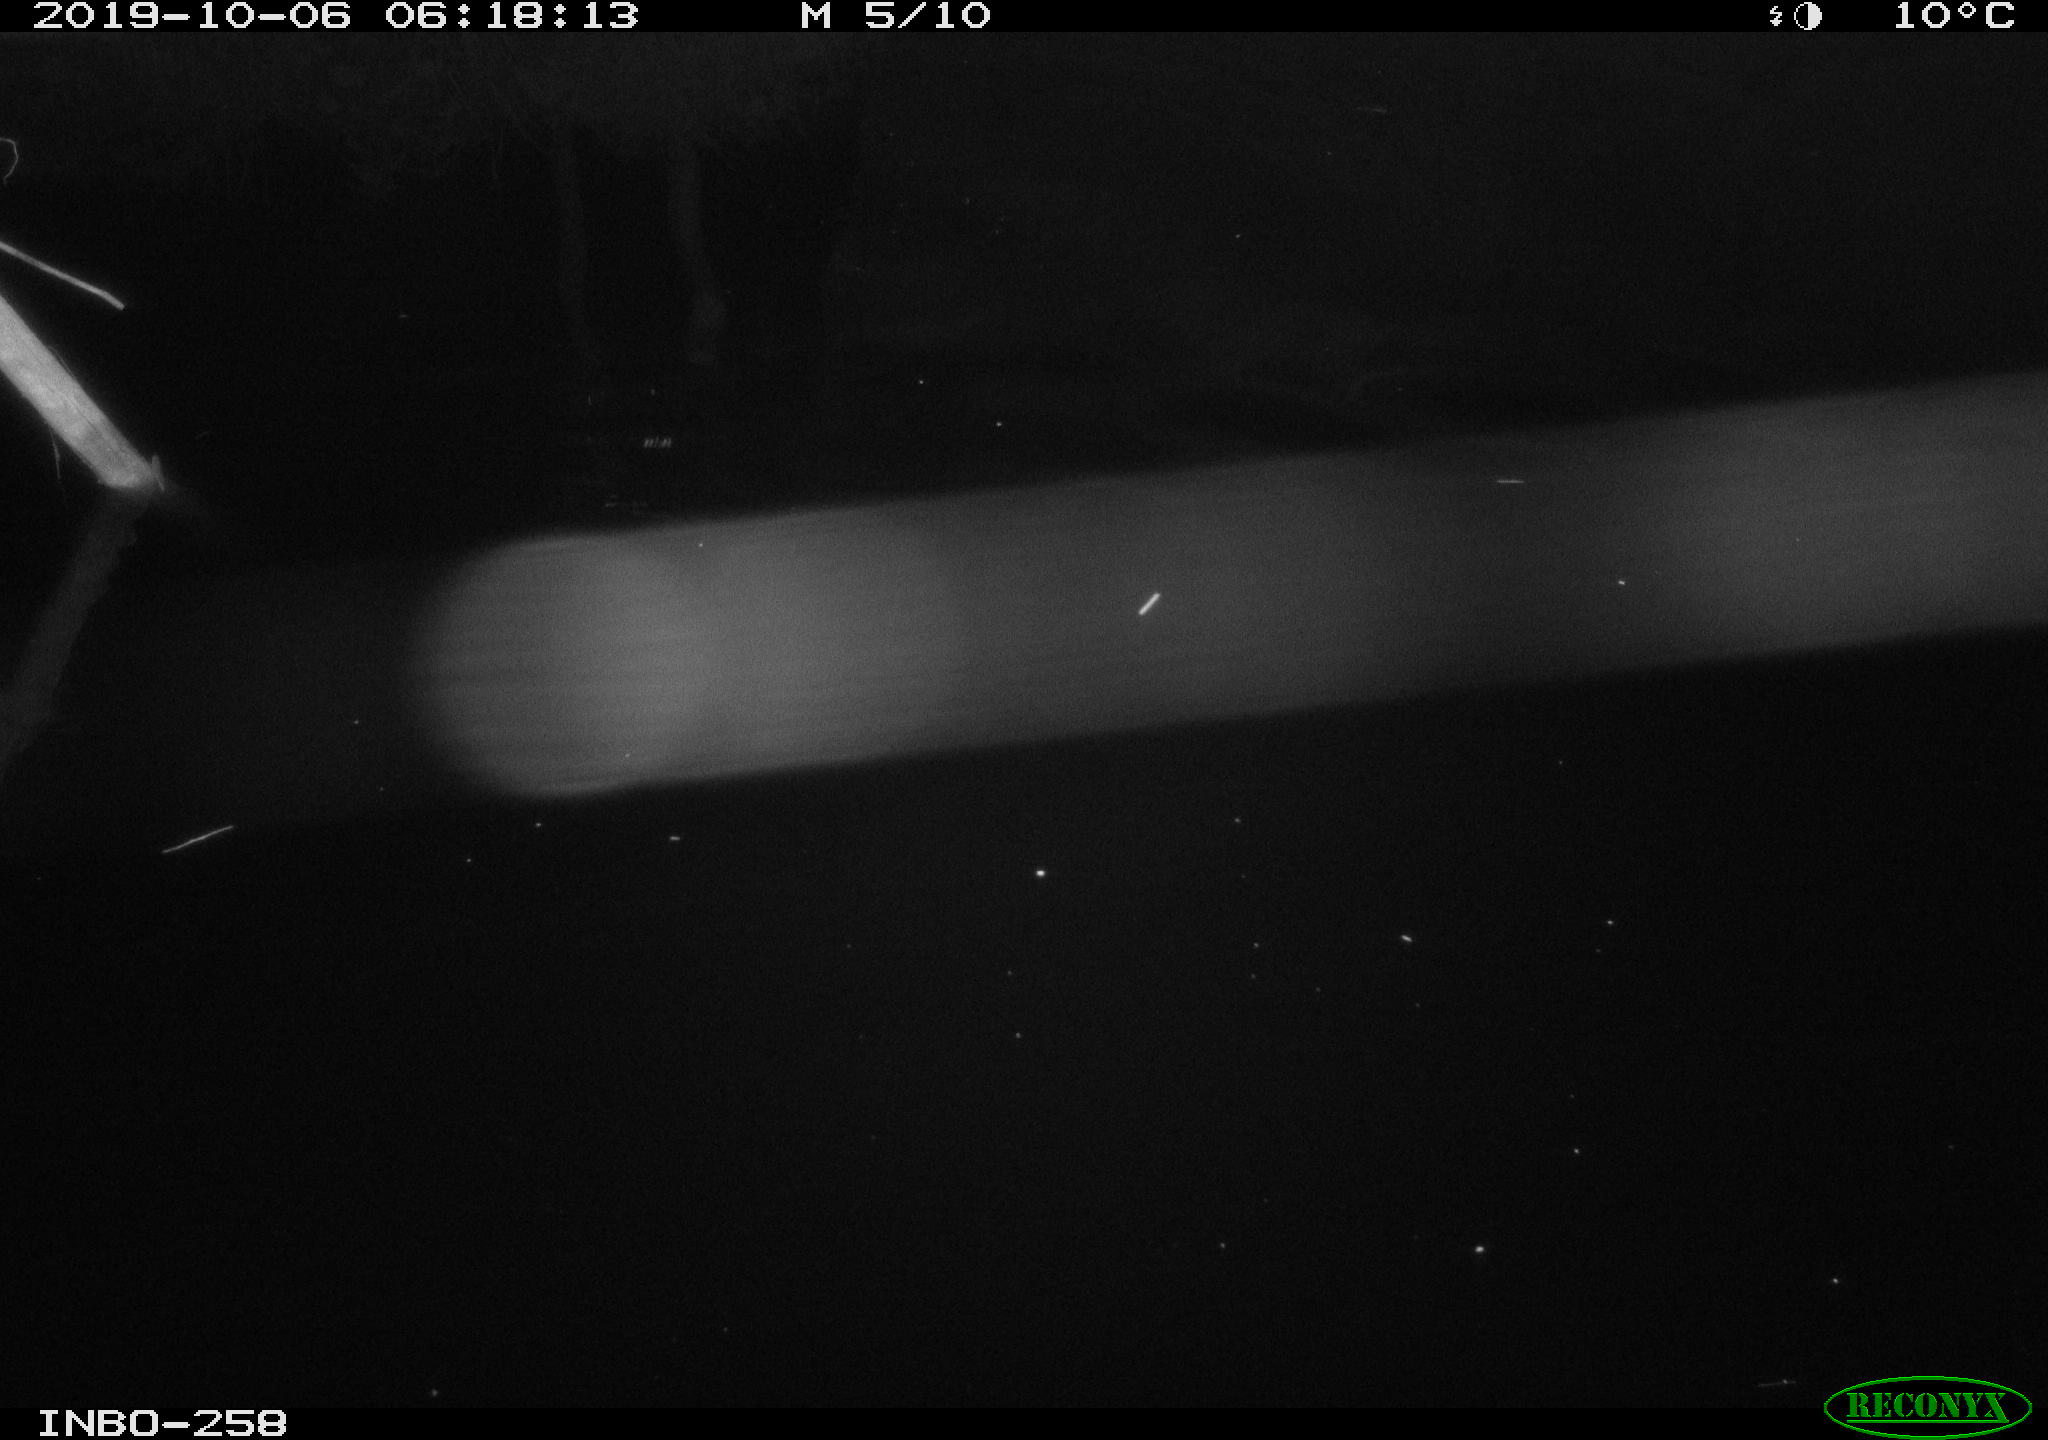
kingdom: Animalia
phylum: Chordata
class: Aves
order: Anseriformes
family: Anatidae
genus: Anas
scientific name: Anas platyrhynchos
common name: Mallard
